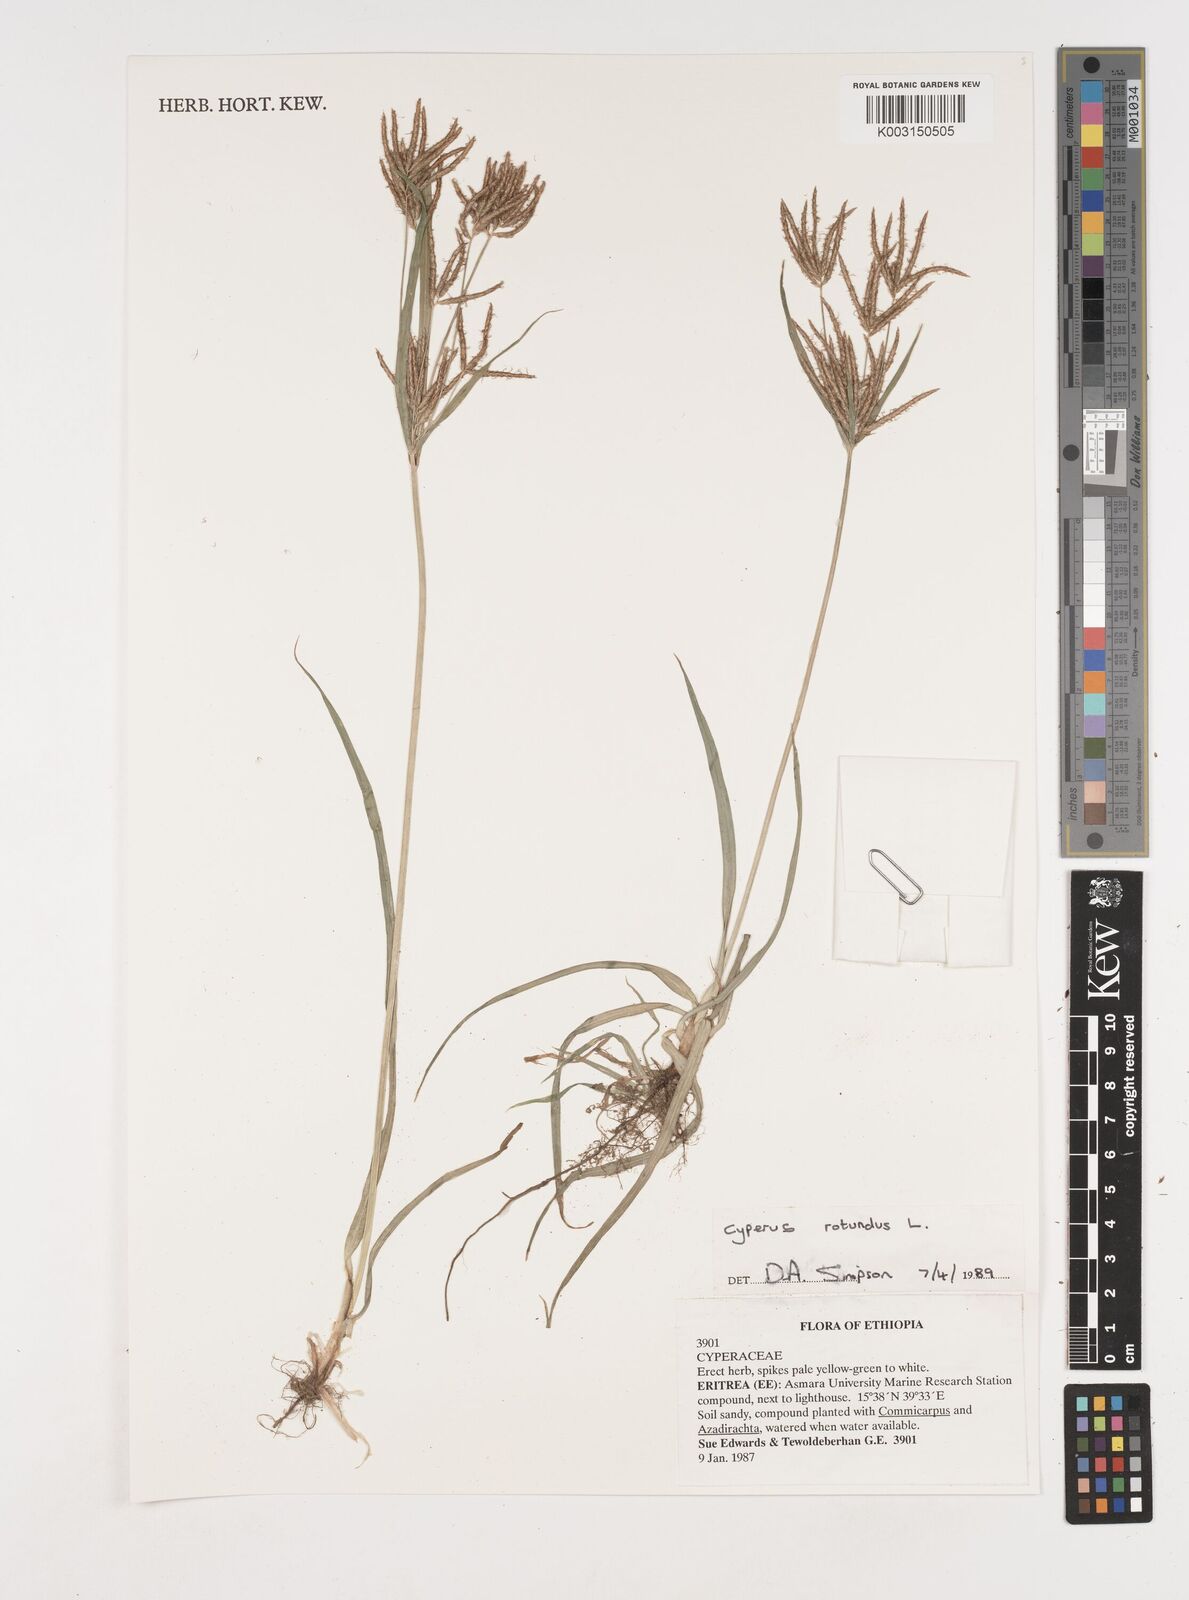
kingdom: Plantae
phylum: Tracheophyta
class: Liliopsida
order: Poales
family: Cyperaceae
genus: Cyperus
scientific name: Cyperus rotundus
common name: Nutgrass
